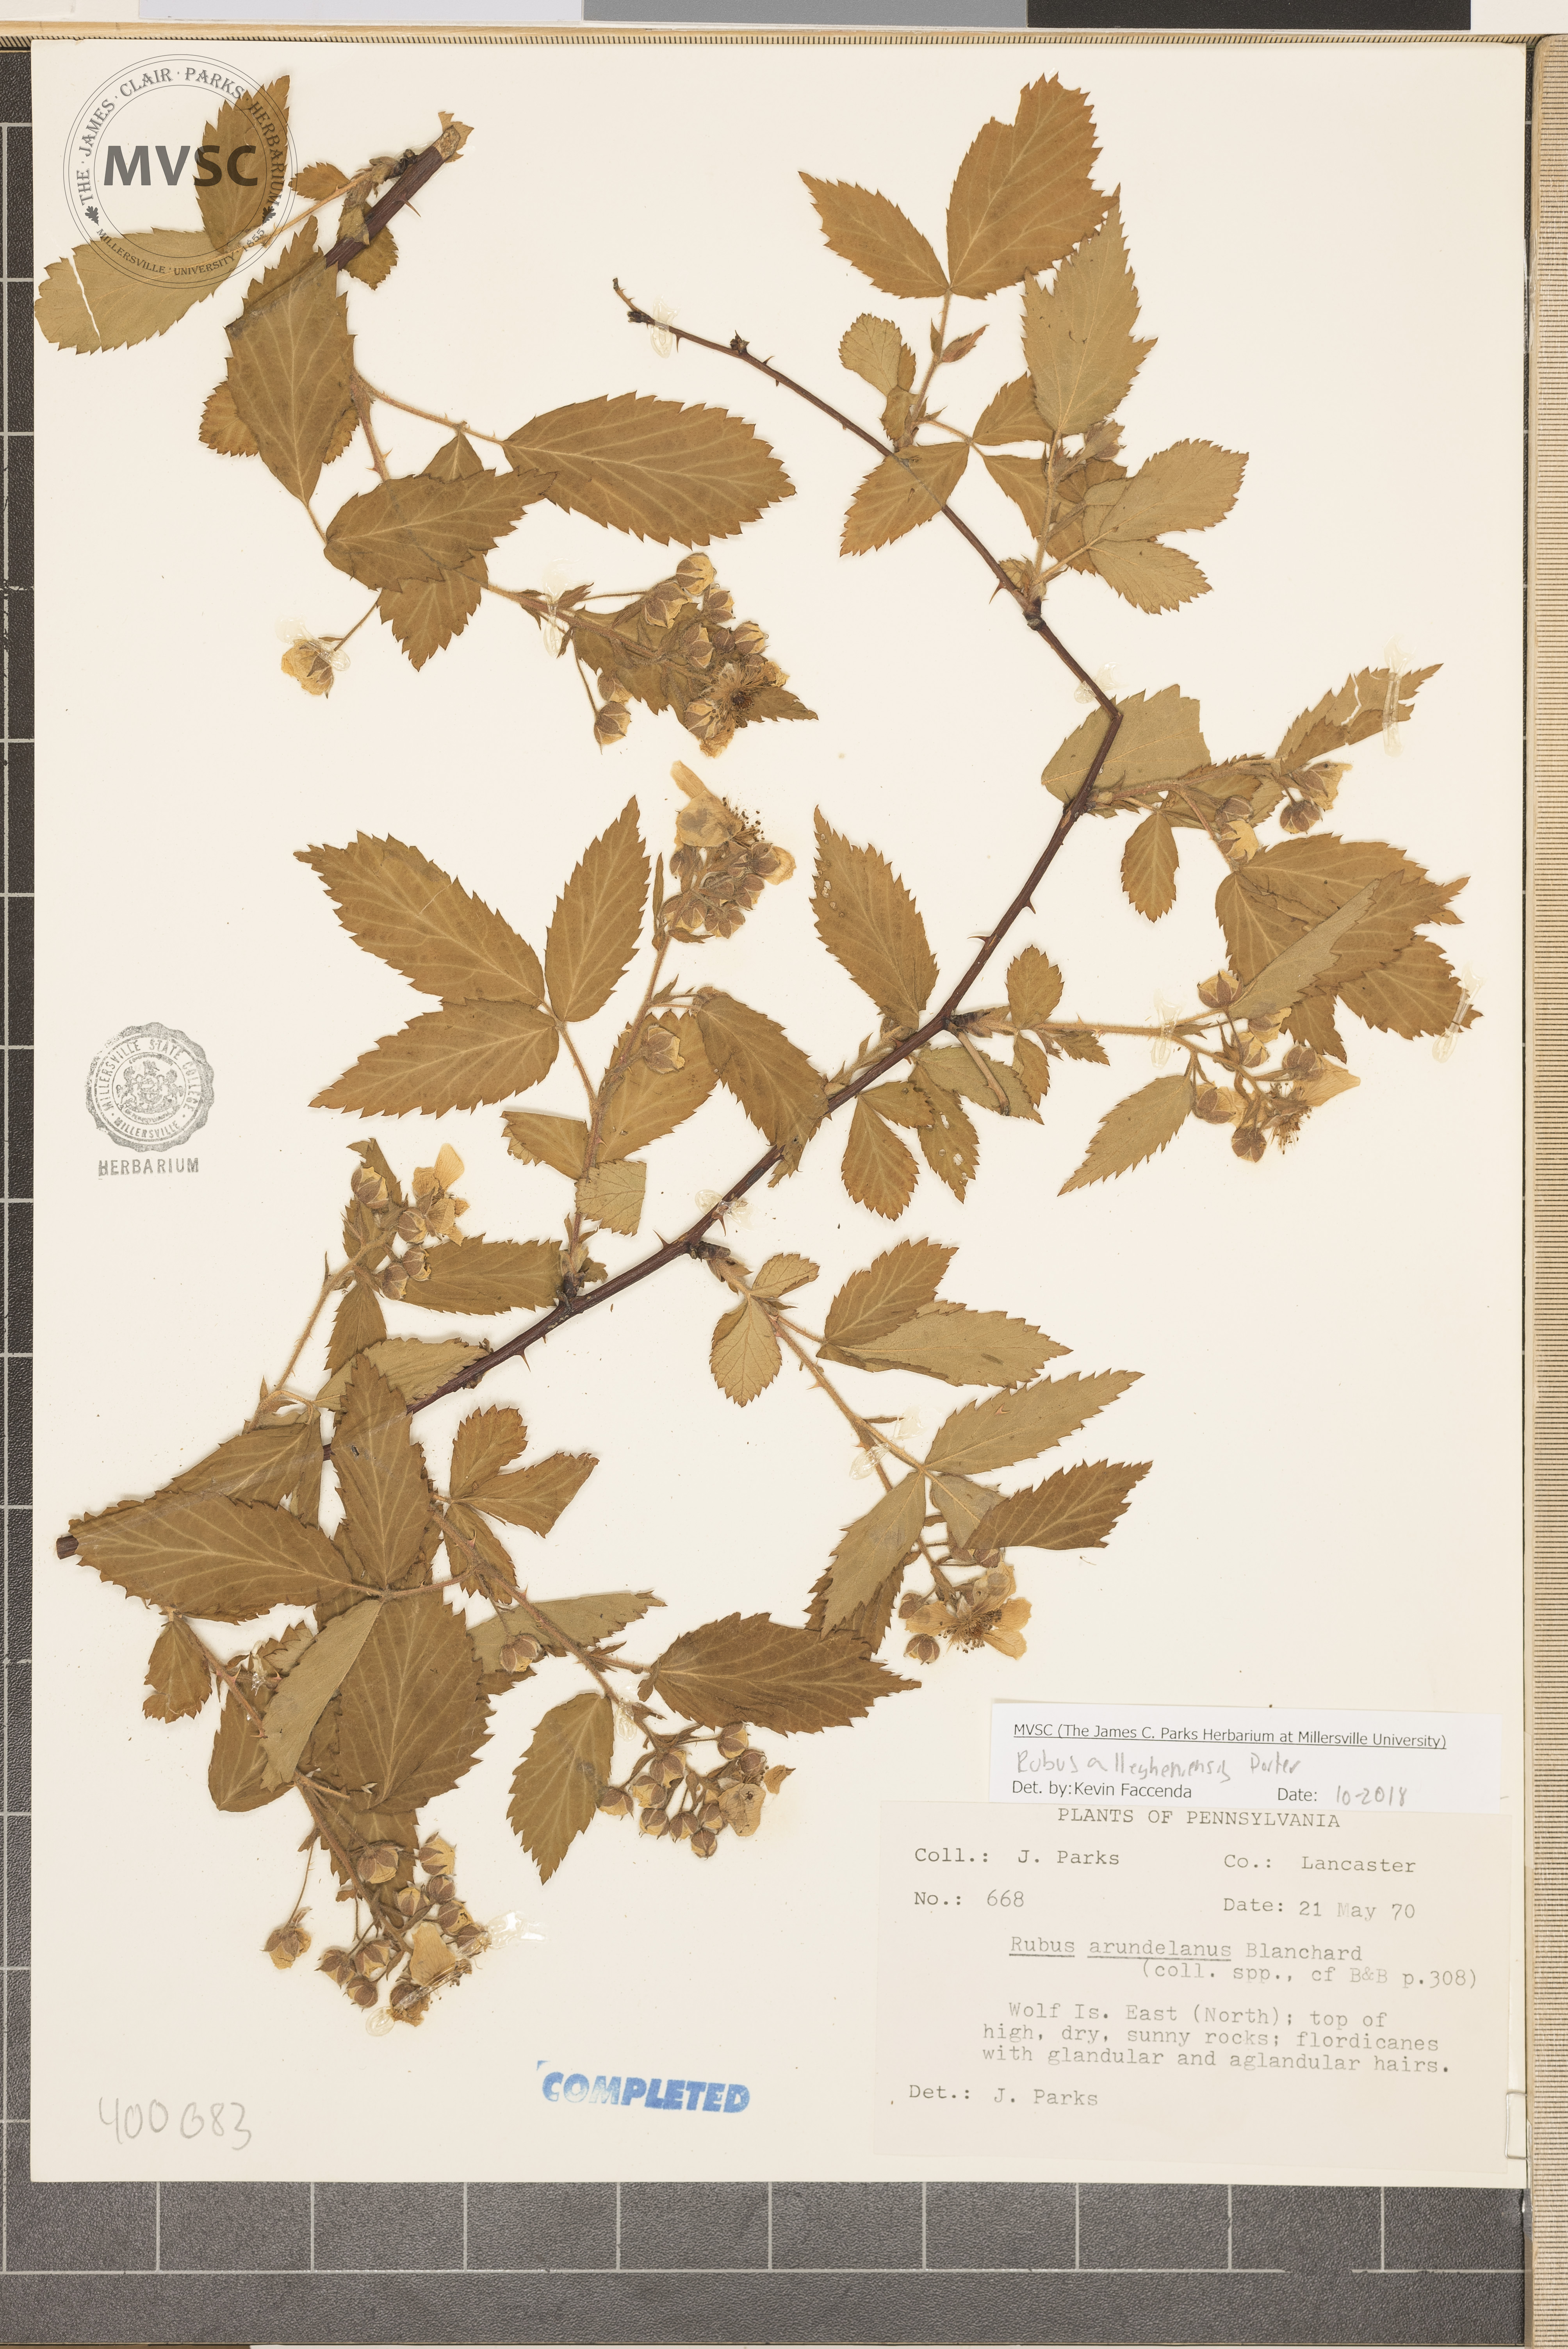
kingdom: Plantae
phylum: Tracheophyta
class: Magnoliopsida
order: Rosales
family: Rosaceae
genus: Rubus
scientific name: Rubus allegheniensis
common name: Allegheny blackberry
